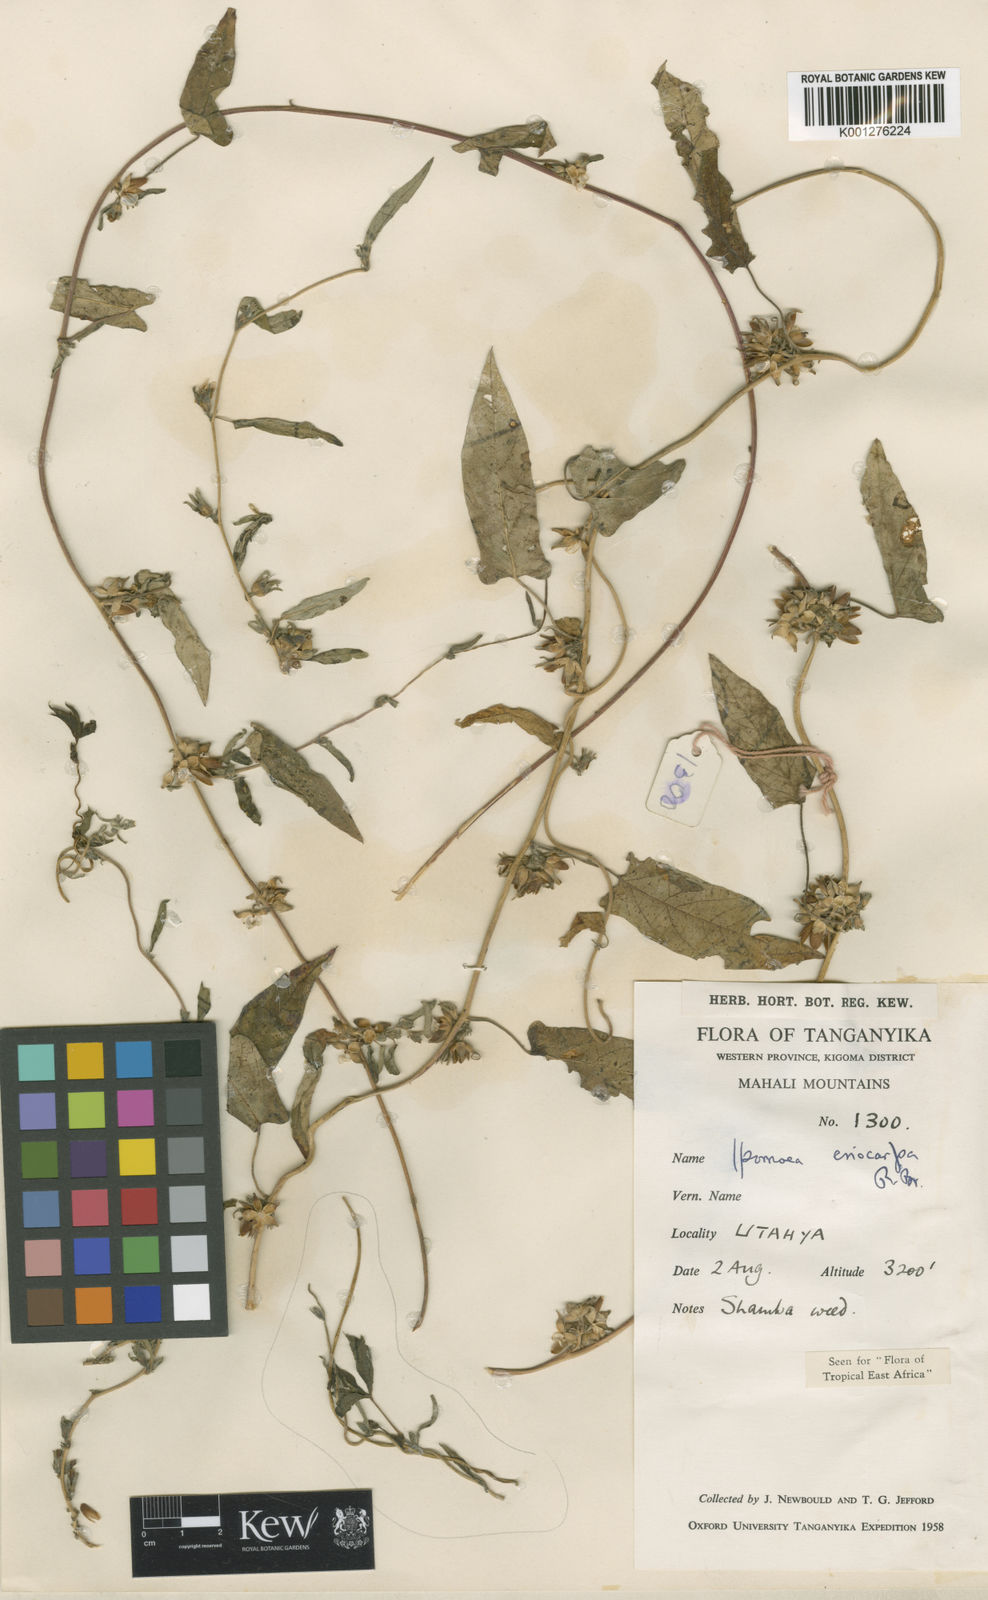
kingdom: Plantae
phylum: Tracheophyta
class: Magnoliopsida
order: Solanales
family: Convolvulaceae
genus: Ipomoea
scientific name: Ipomoea eriocarpa
